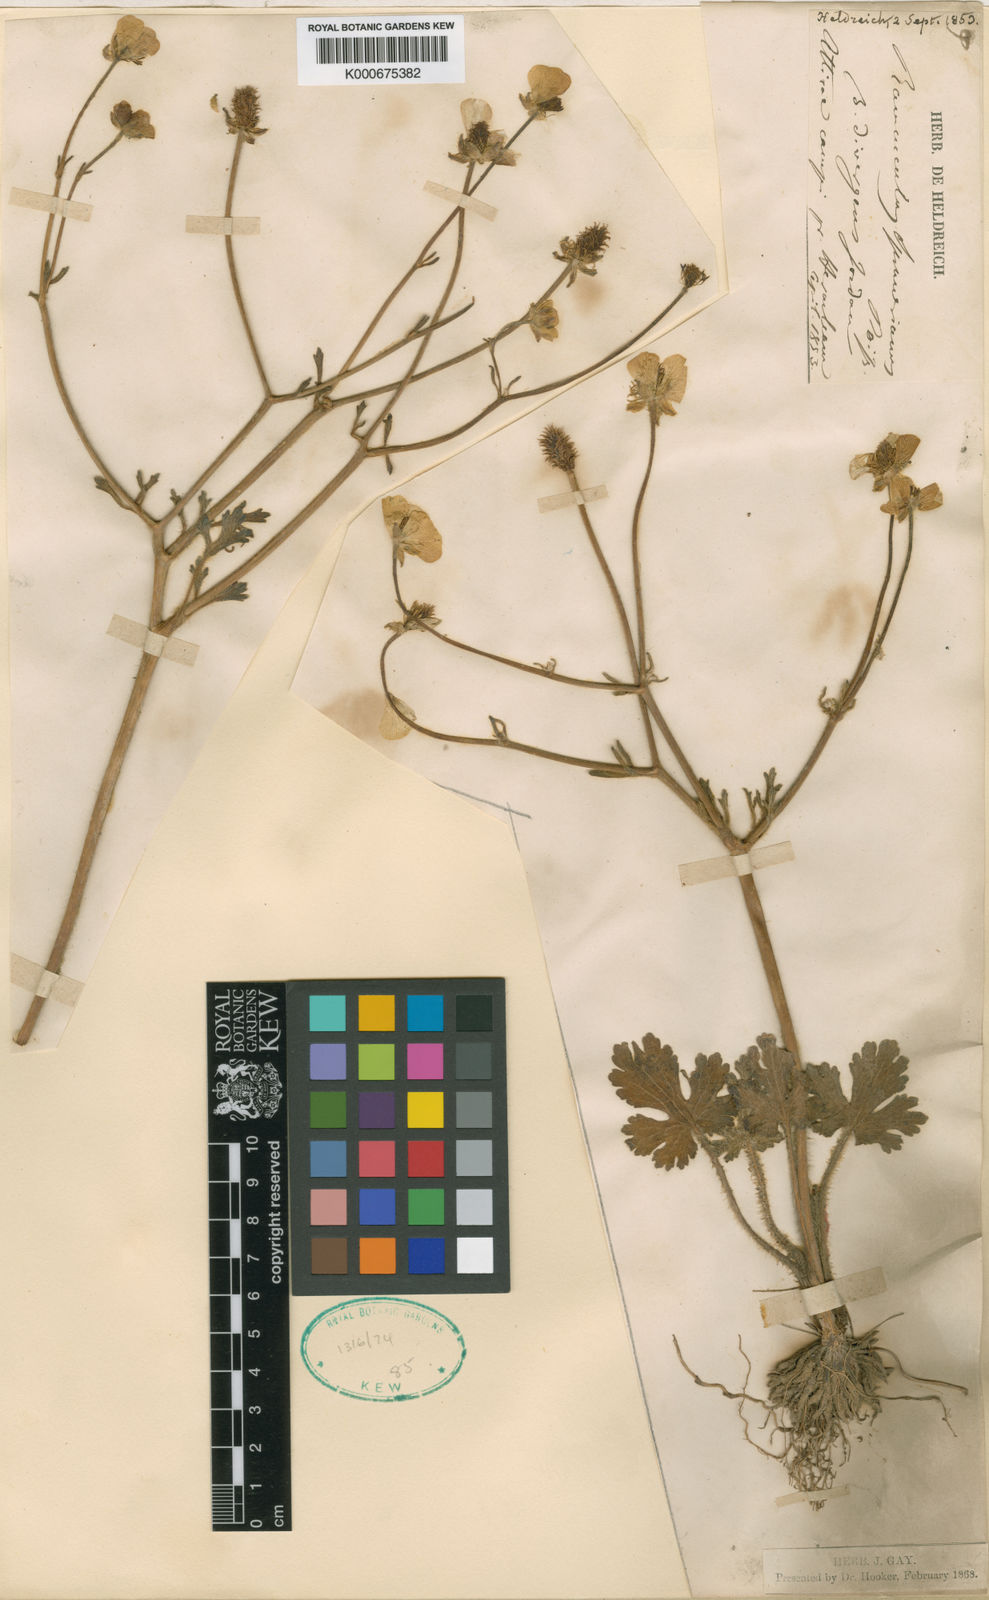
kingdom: Plantae
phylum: Tracheophyta
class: Magnoliopsida
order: Ranunculales
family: Ranunculaceae
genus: Ranunculus
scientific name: Ranunculus sprunerianus
